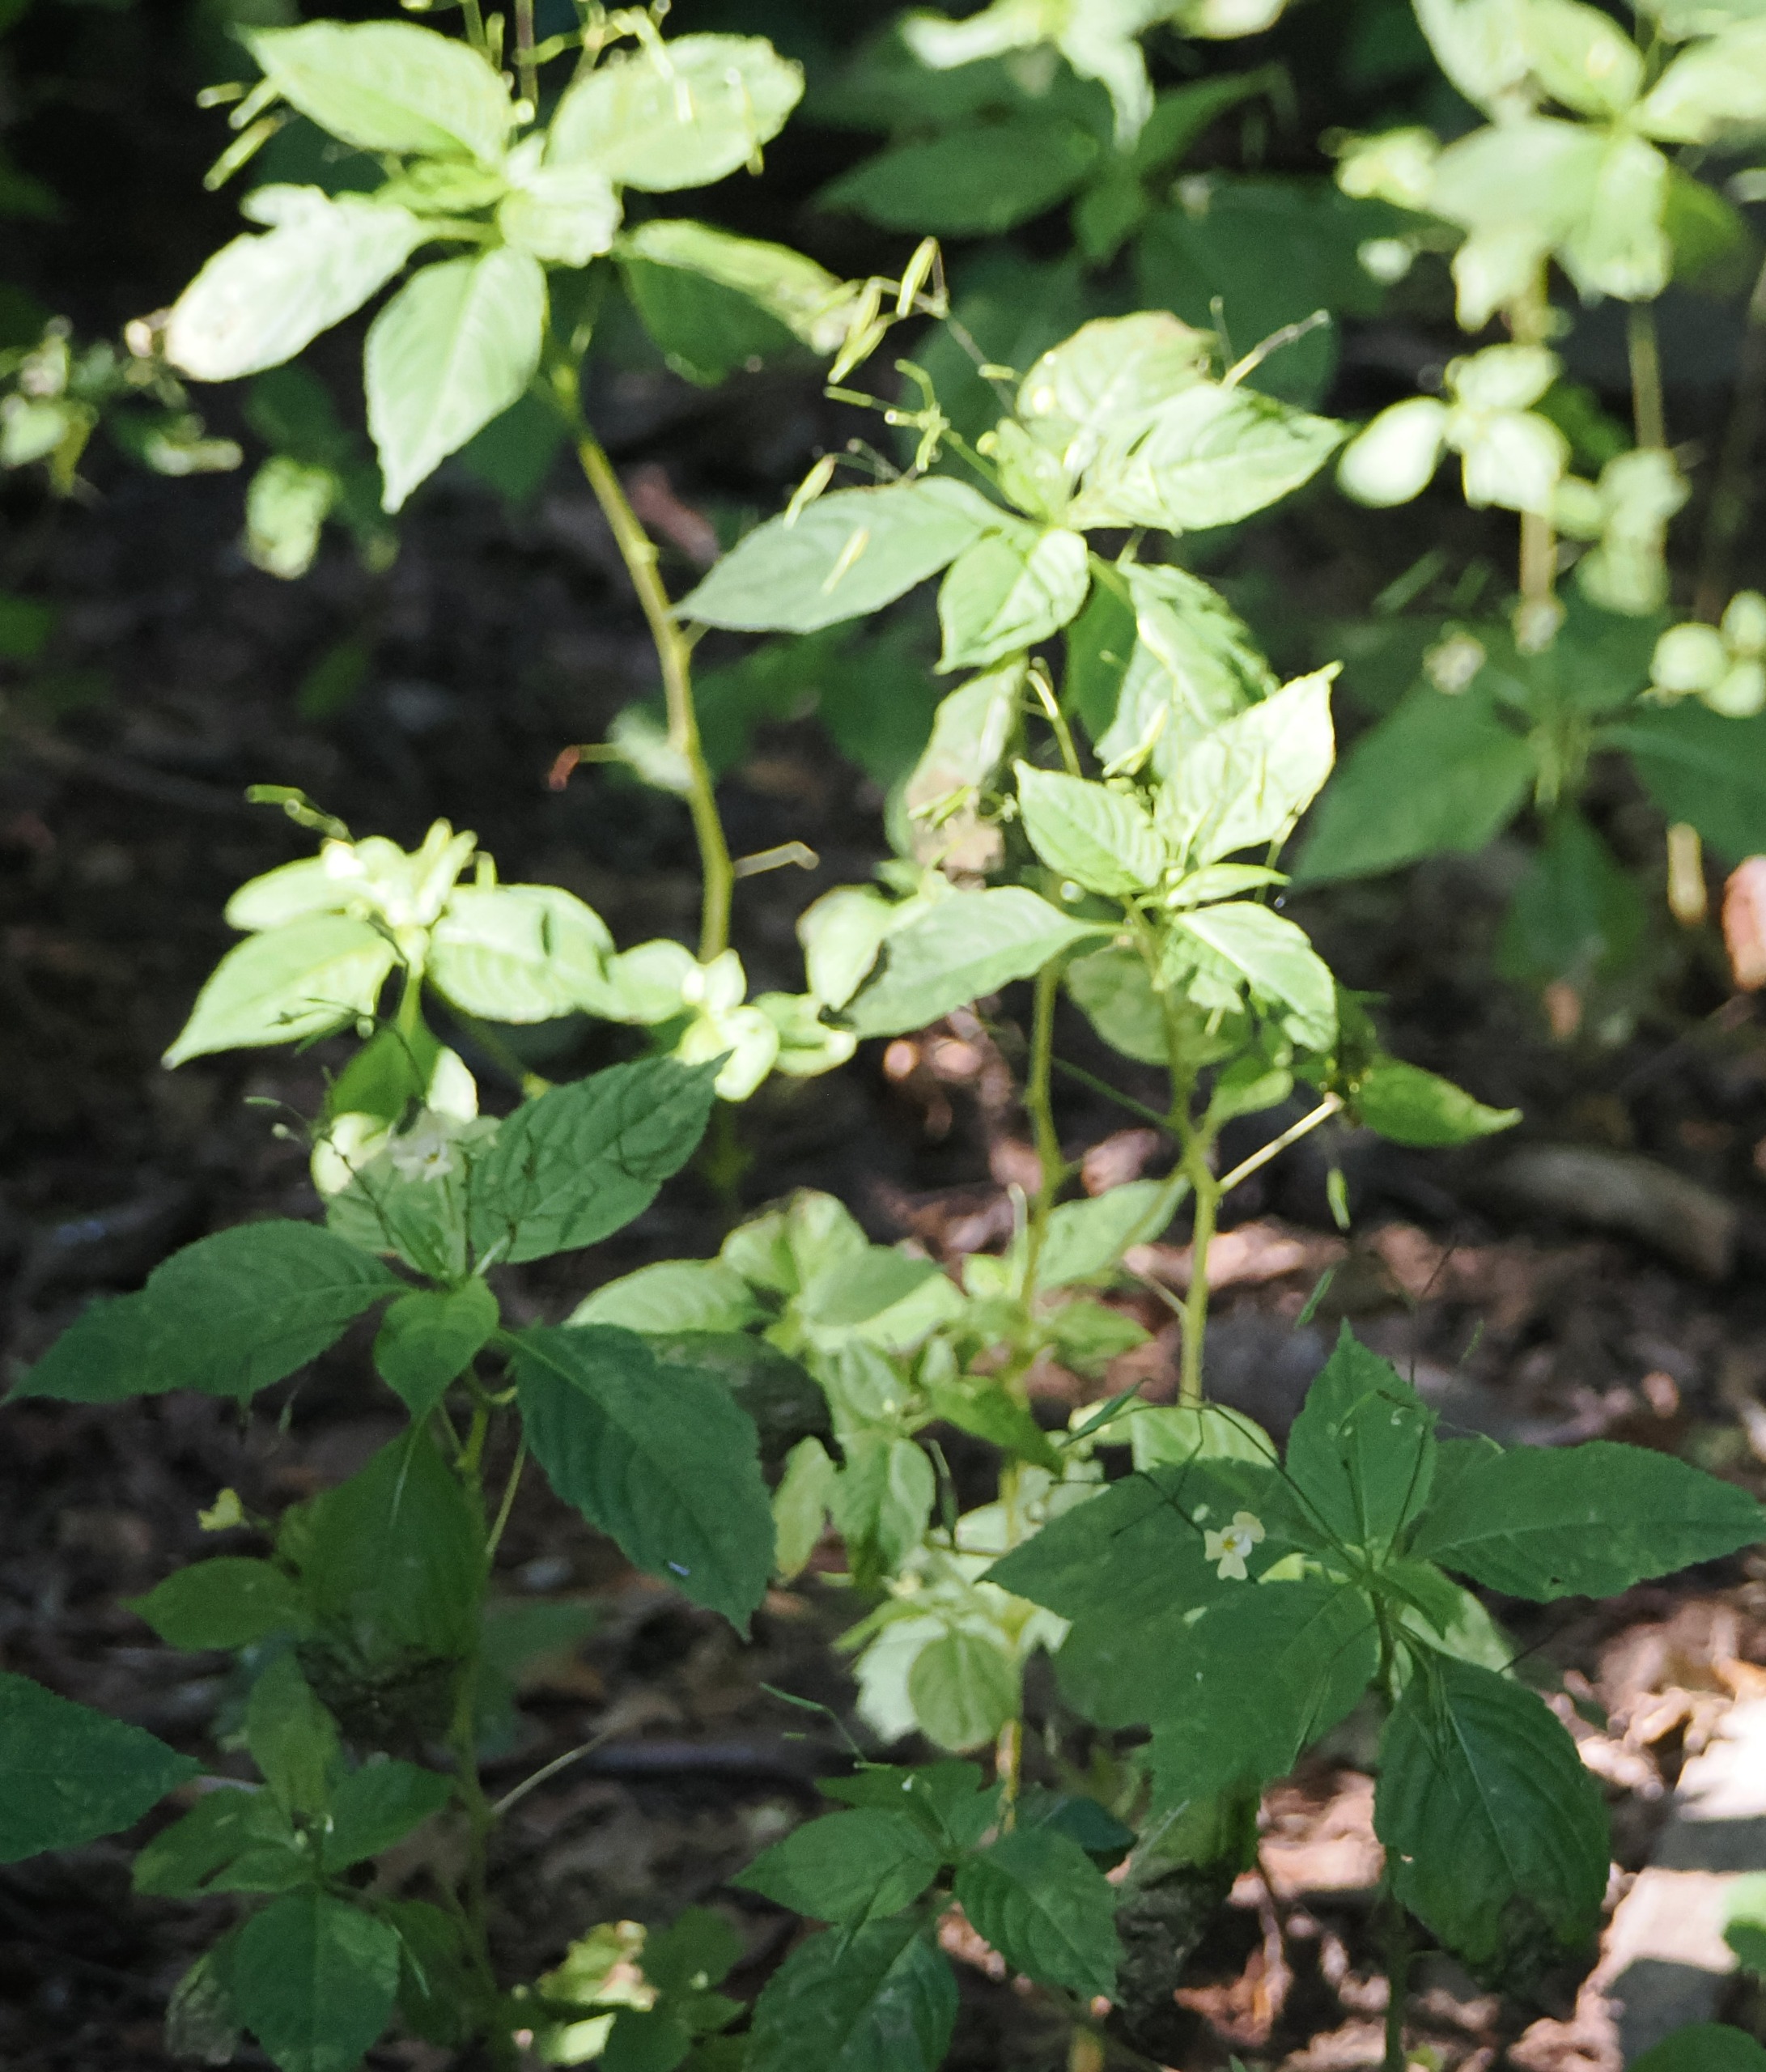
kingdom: Plantae
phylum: Tracheophyta
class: Magnoliopsida
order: Ericales
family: Balsaminaceae
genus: Impatiens
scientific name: Impatiens parviflora
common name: Småblomstret balsamin
